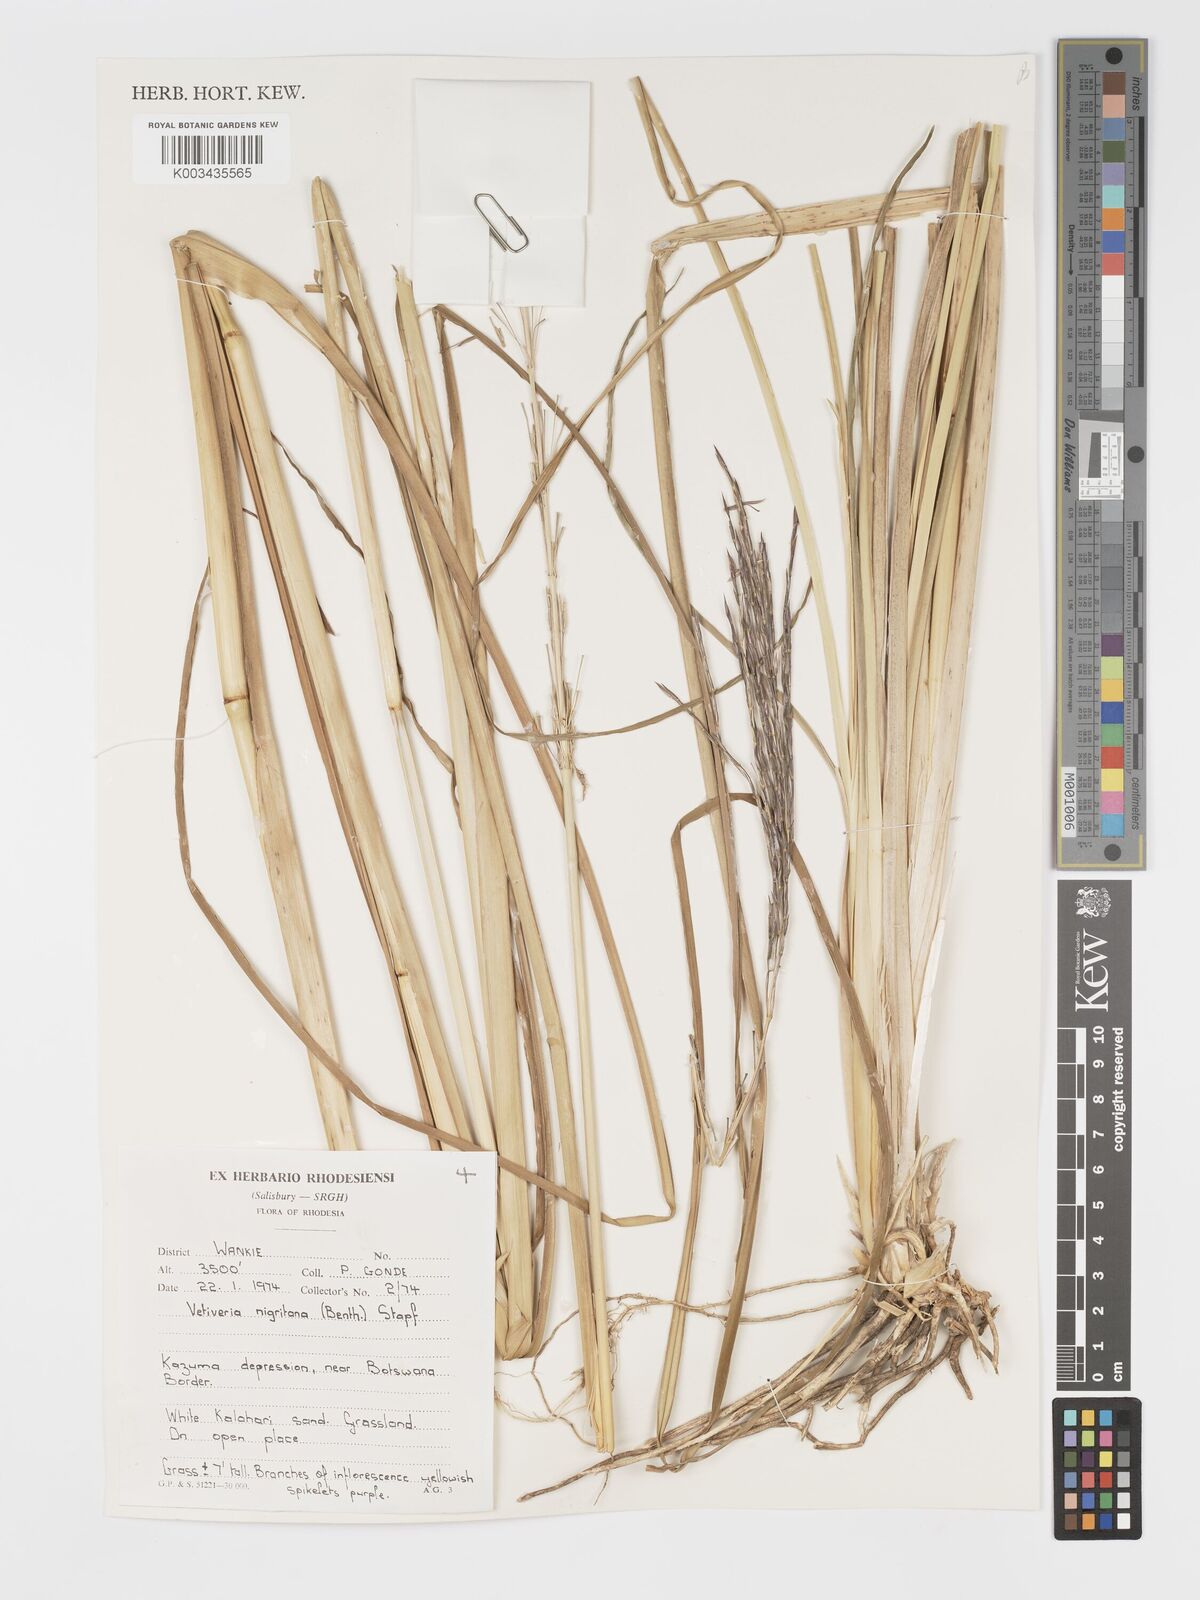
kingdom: Plantae
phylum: Tracheophyta
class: Liliopsida
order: Poales
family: Poaceae
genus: Chrysopogon
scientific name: Chrysopogon nigritanus
